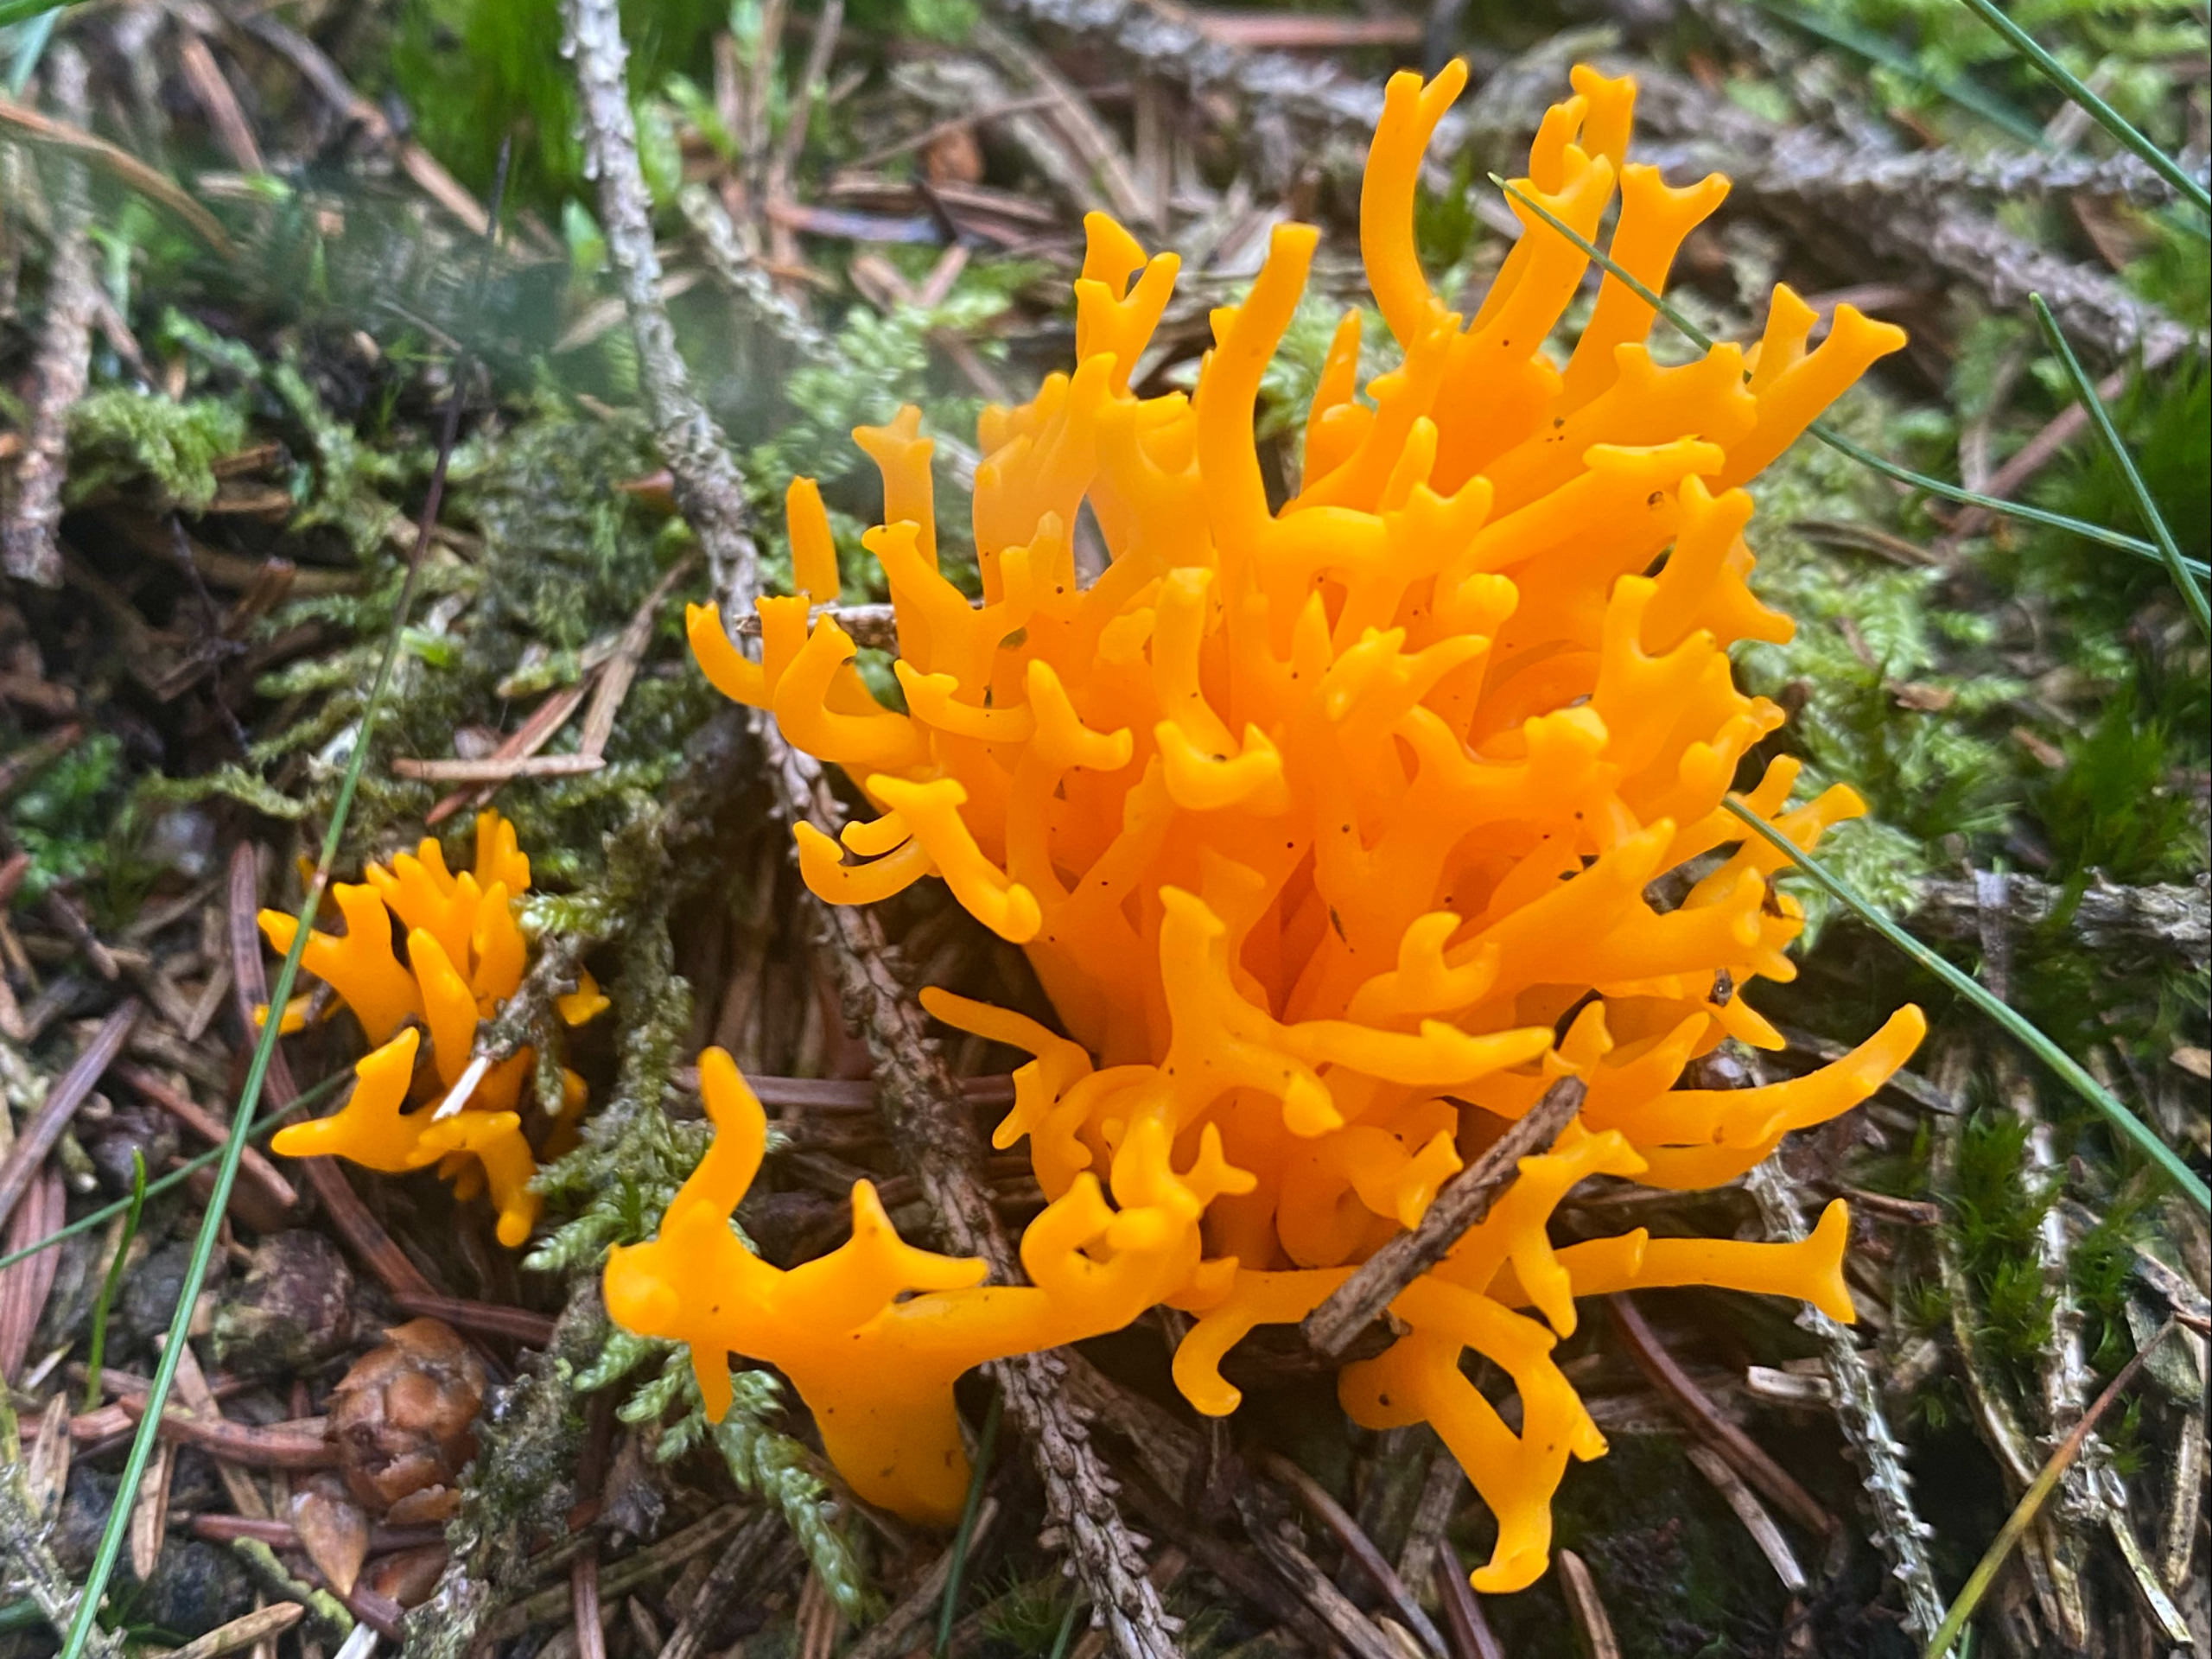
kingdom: Fungi
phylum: Basidiomycota
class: Dacrymycetes
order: Dacrymycetales
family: Dacrymycetaceae
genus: Calocera
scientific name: Calocera viscosa
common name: Almindelig guldgaffel
